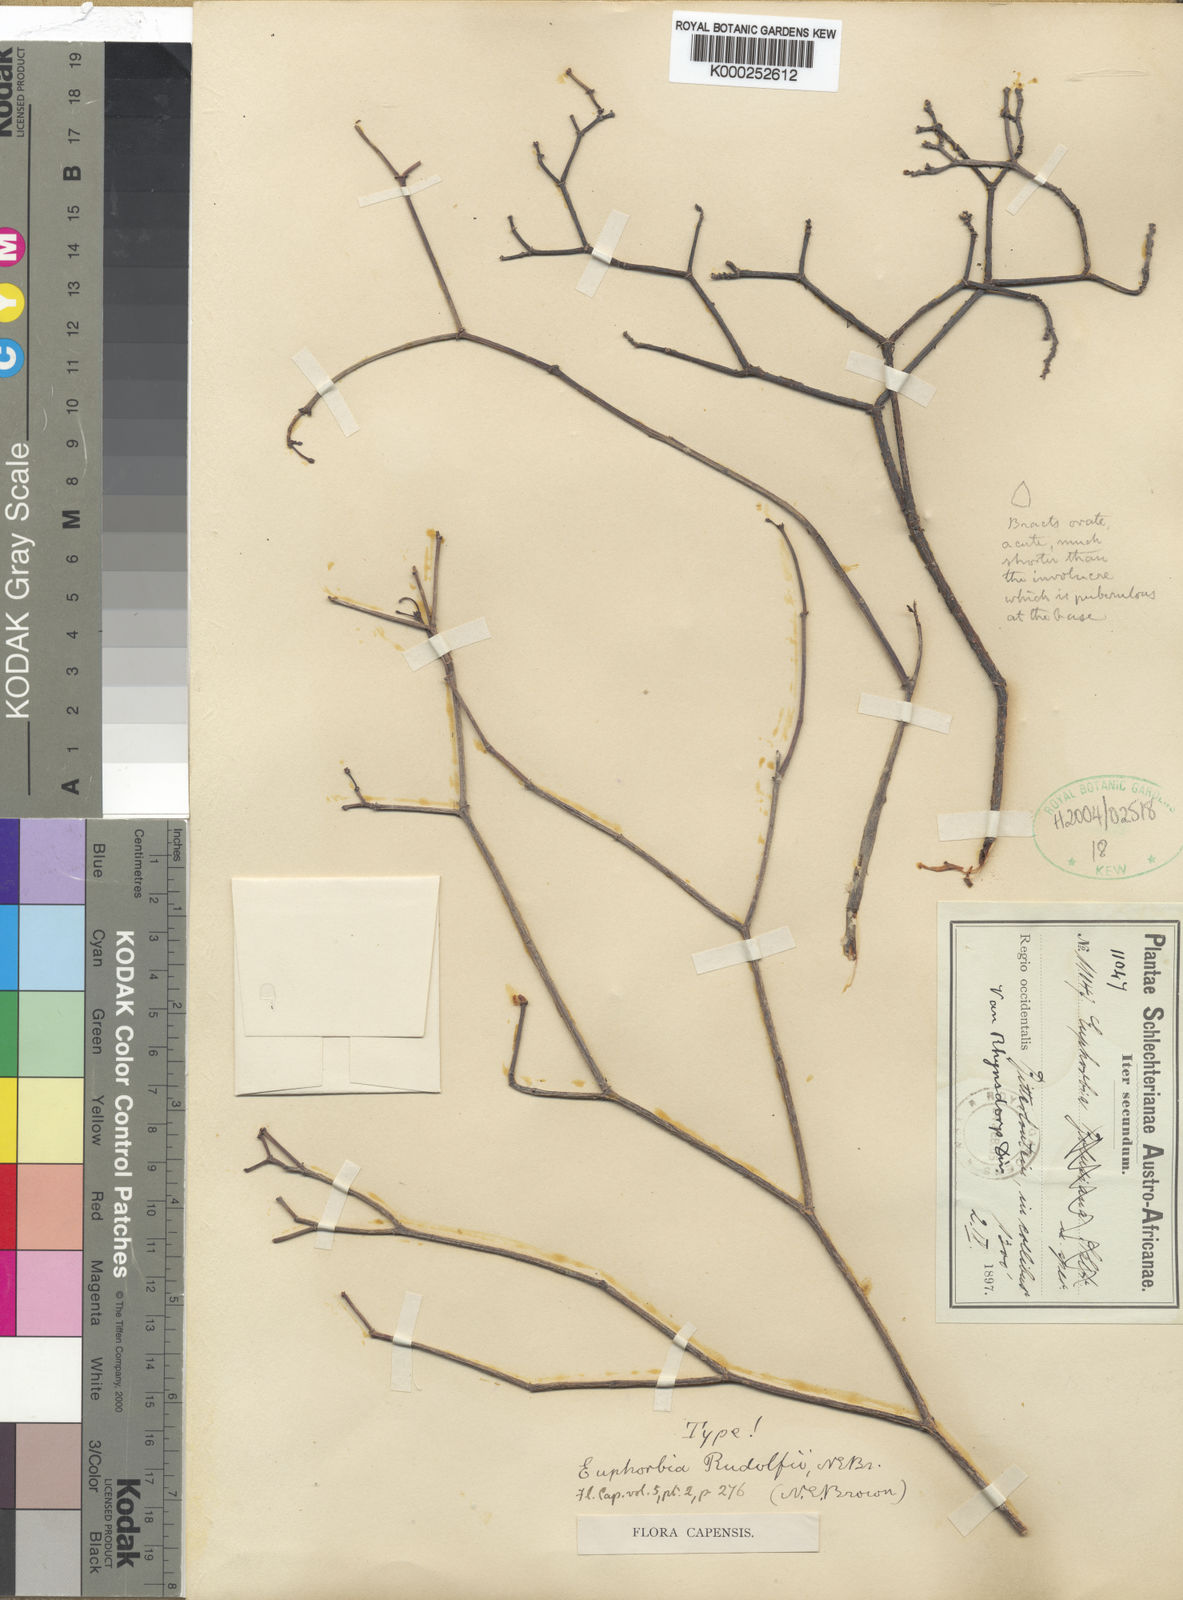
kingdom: Plantae
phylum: Tracheophyta
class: Magnoliopsida
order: Malpighiales
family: Euphorbiaceae
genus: Euphorbia
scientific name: Euphorbia rhombifolia
